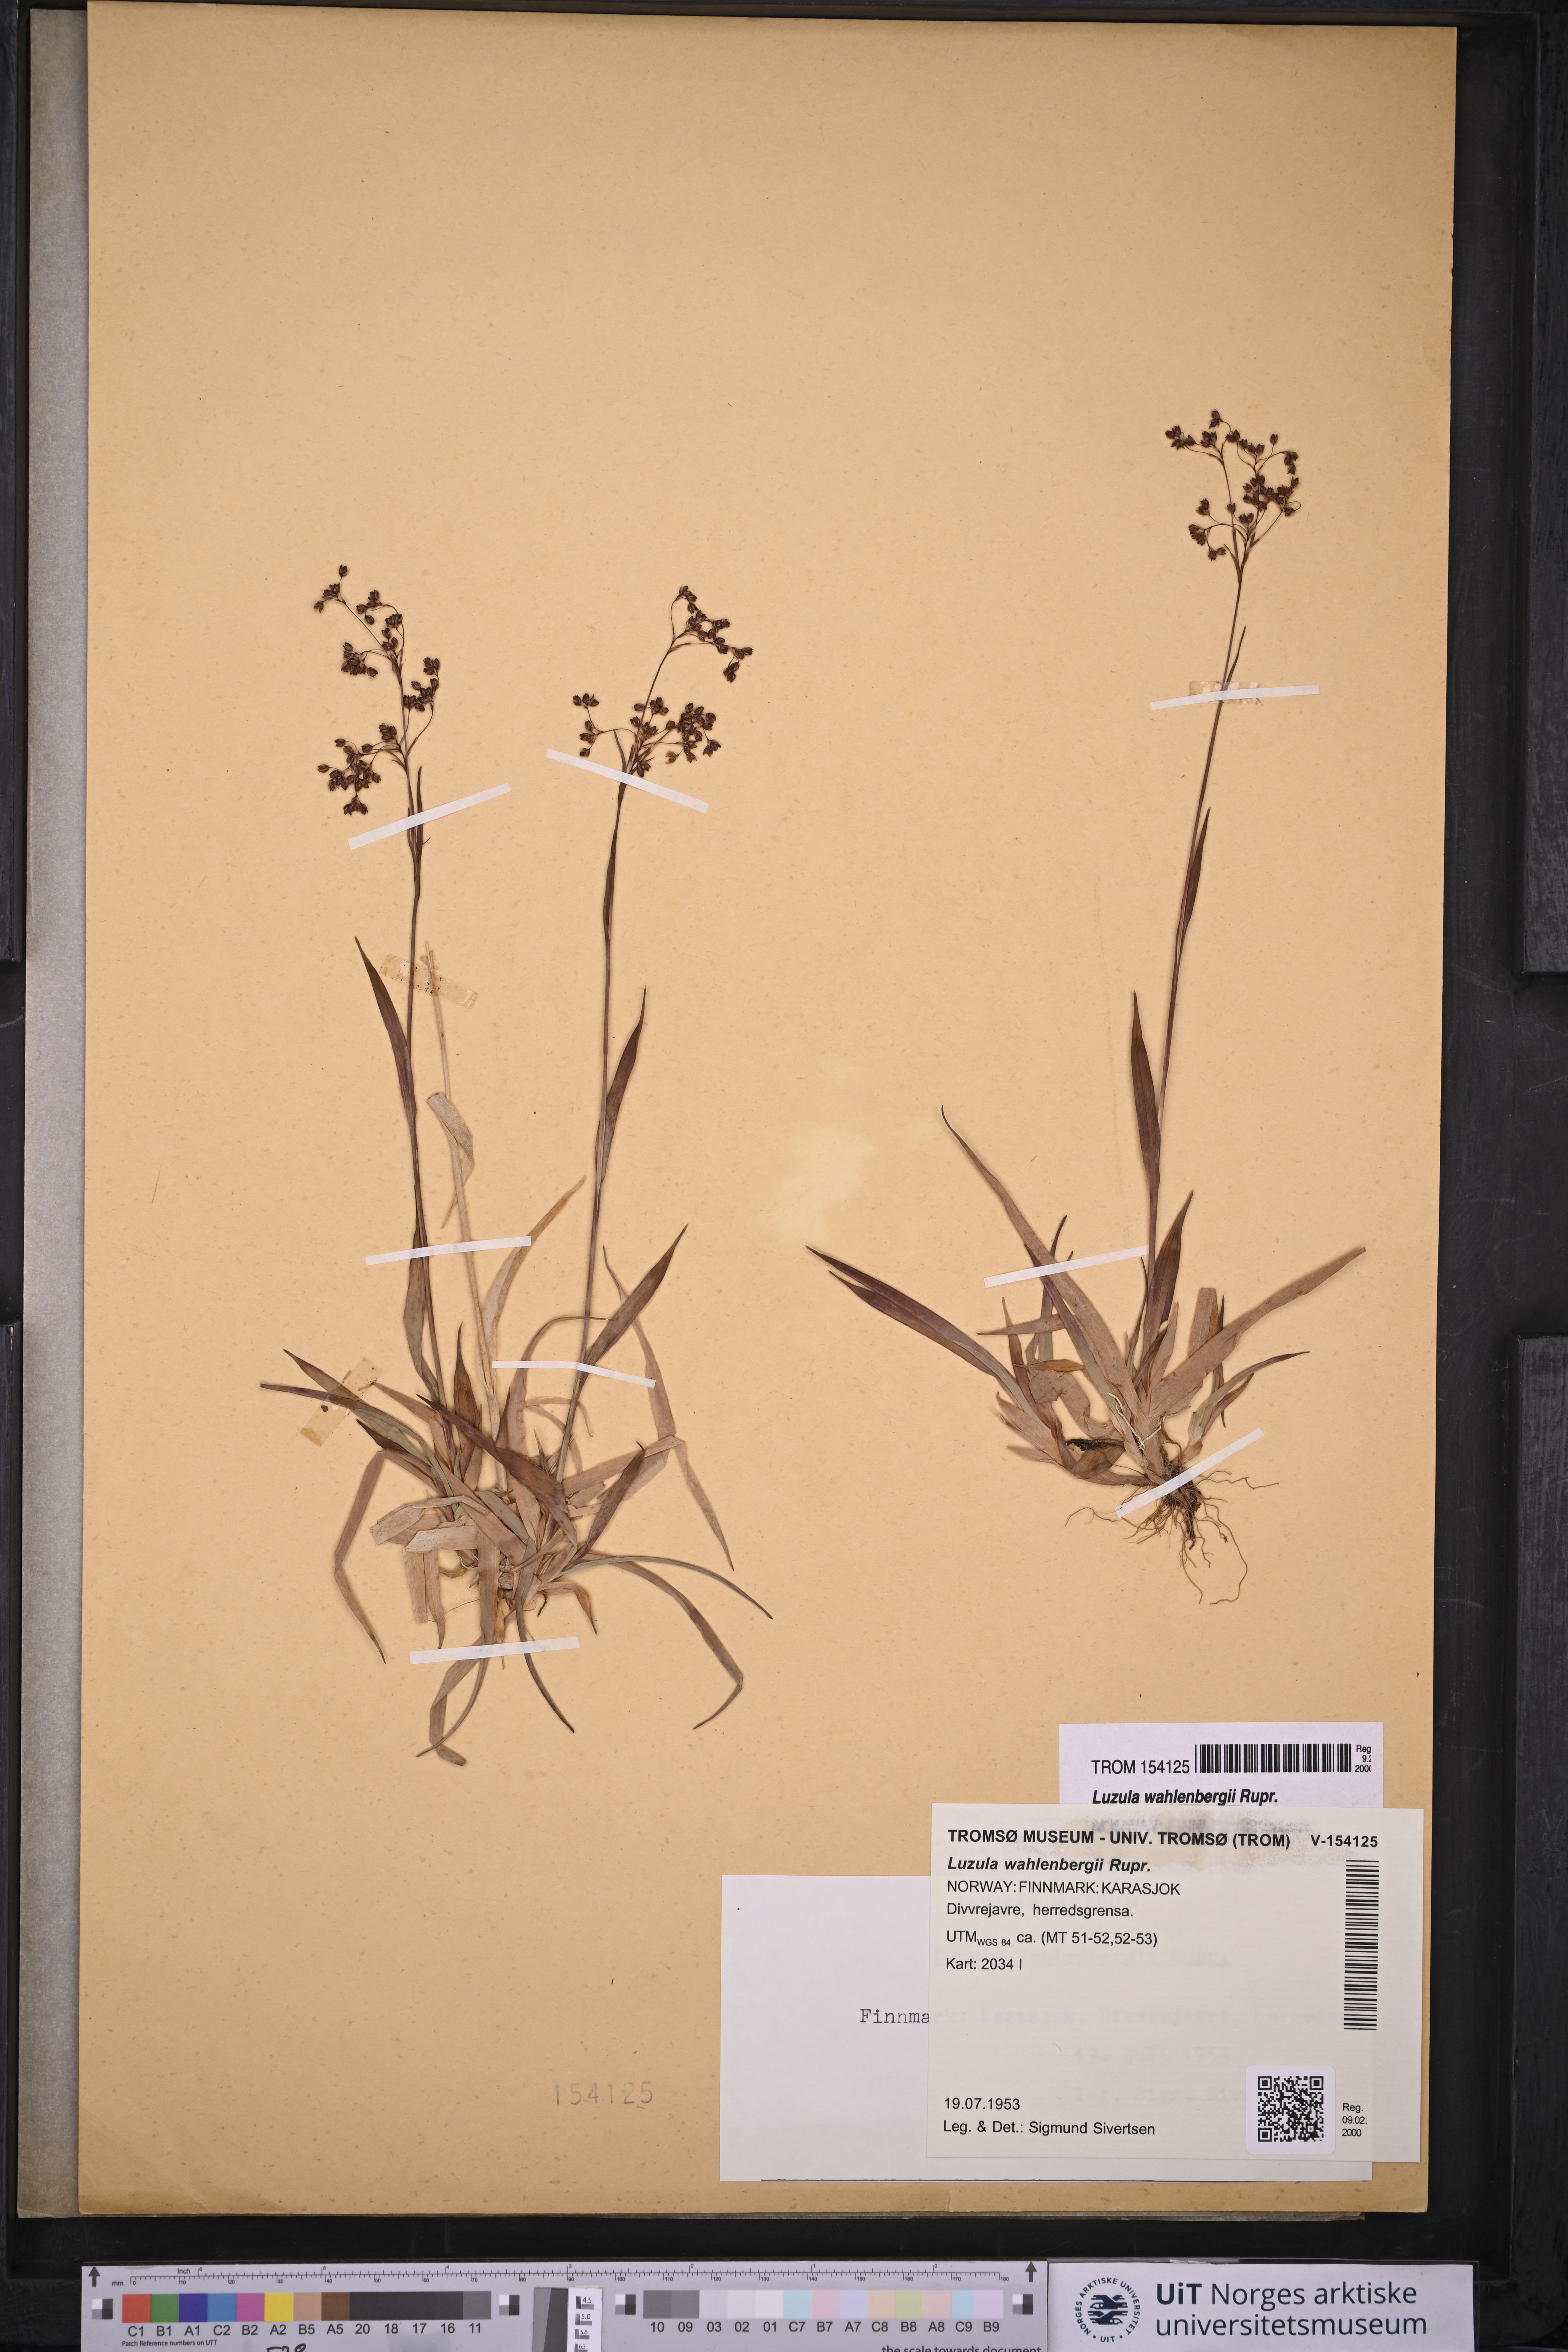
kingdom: Plantae
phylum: Tracheophyta
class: Liliopsida
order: Poales
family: Juncaceae
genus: Luzula
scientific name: Luzula wahlenbergii
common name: Wahlenberg's wood-rush
